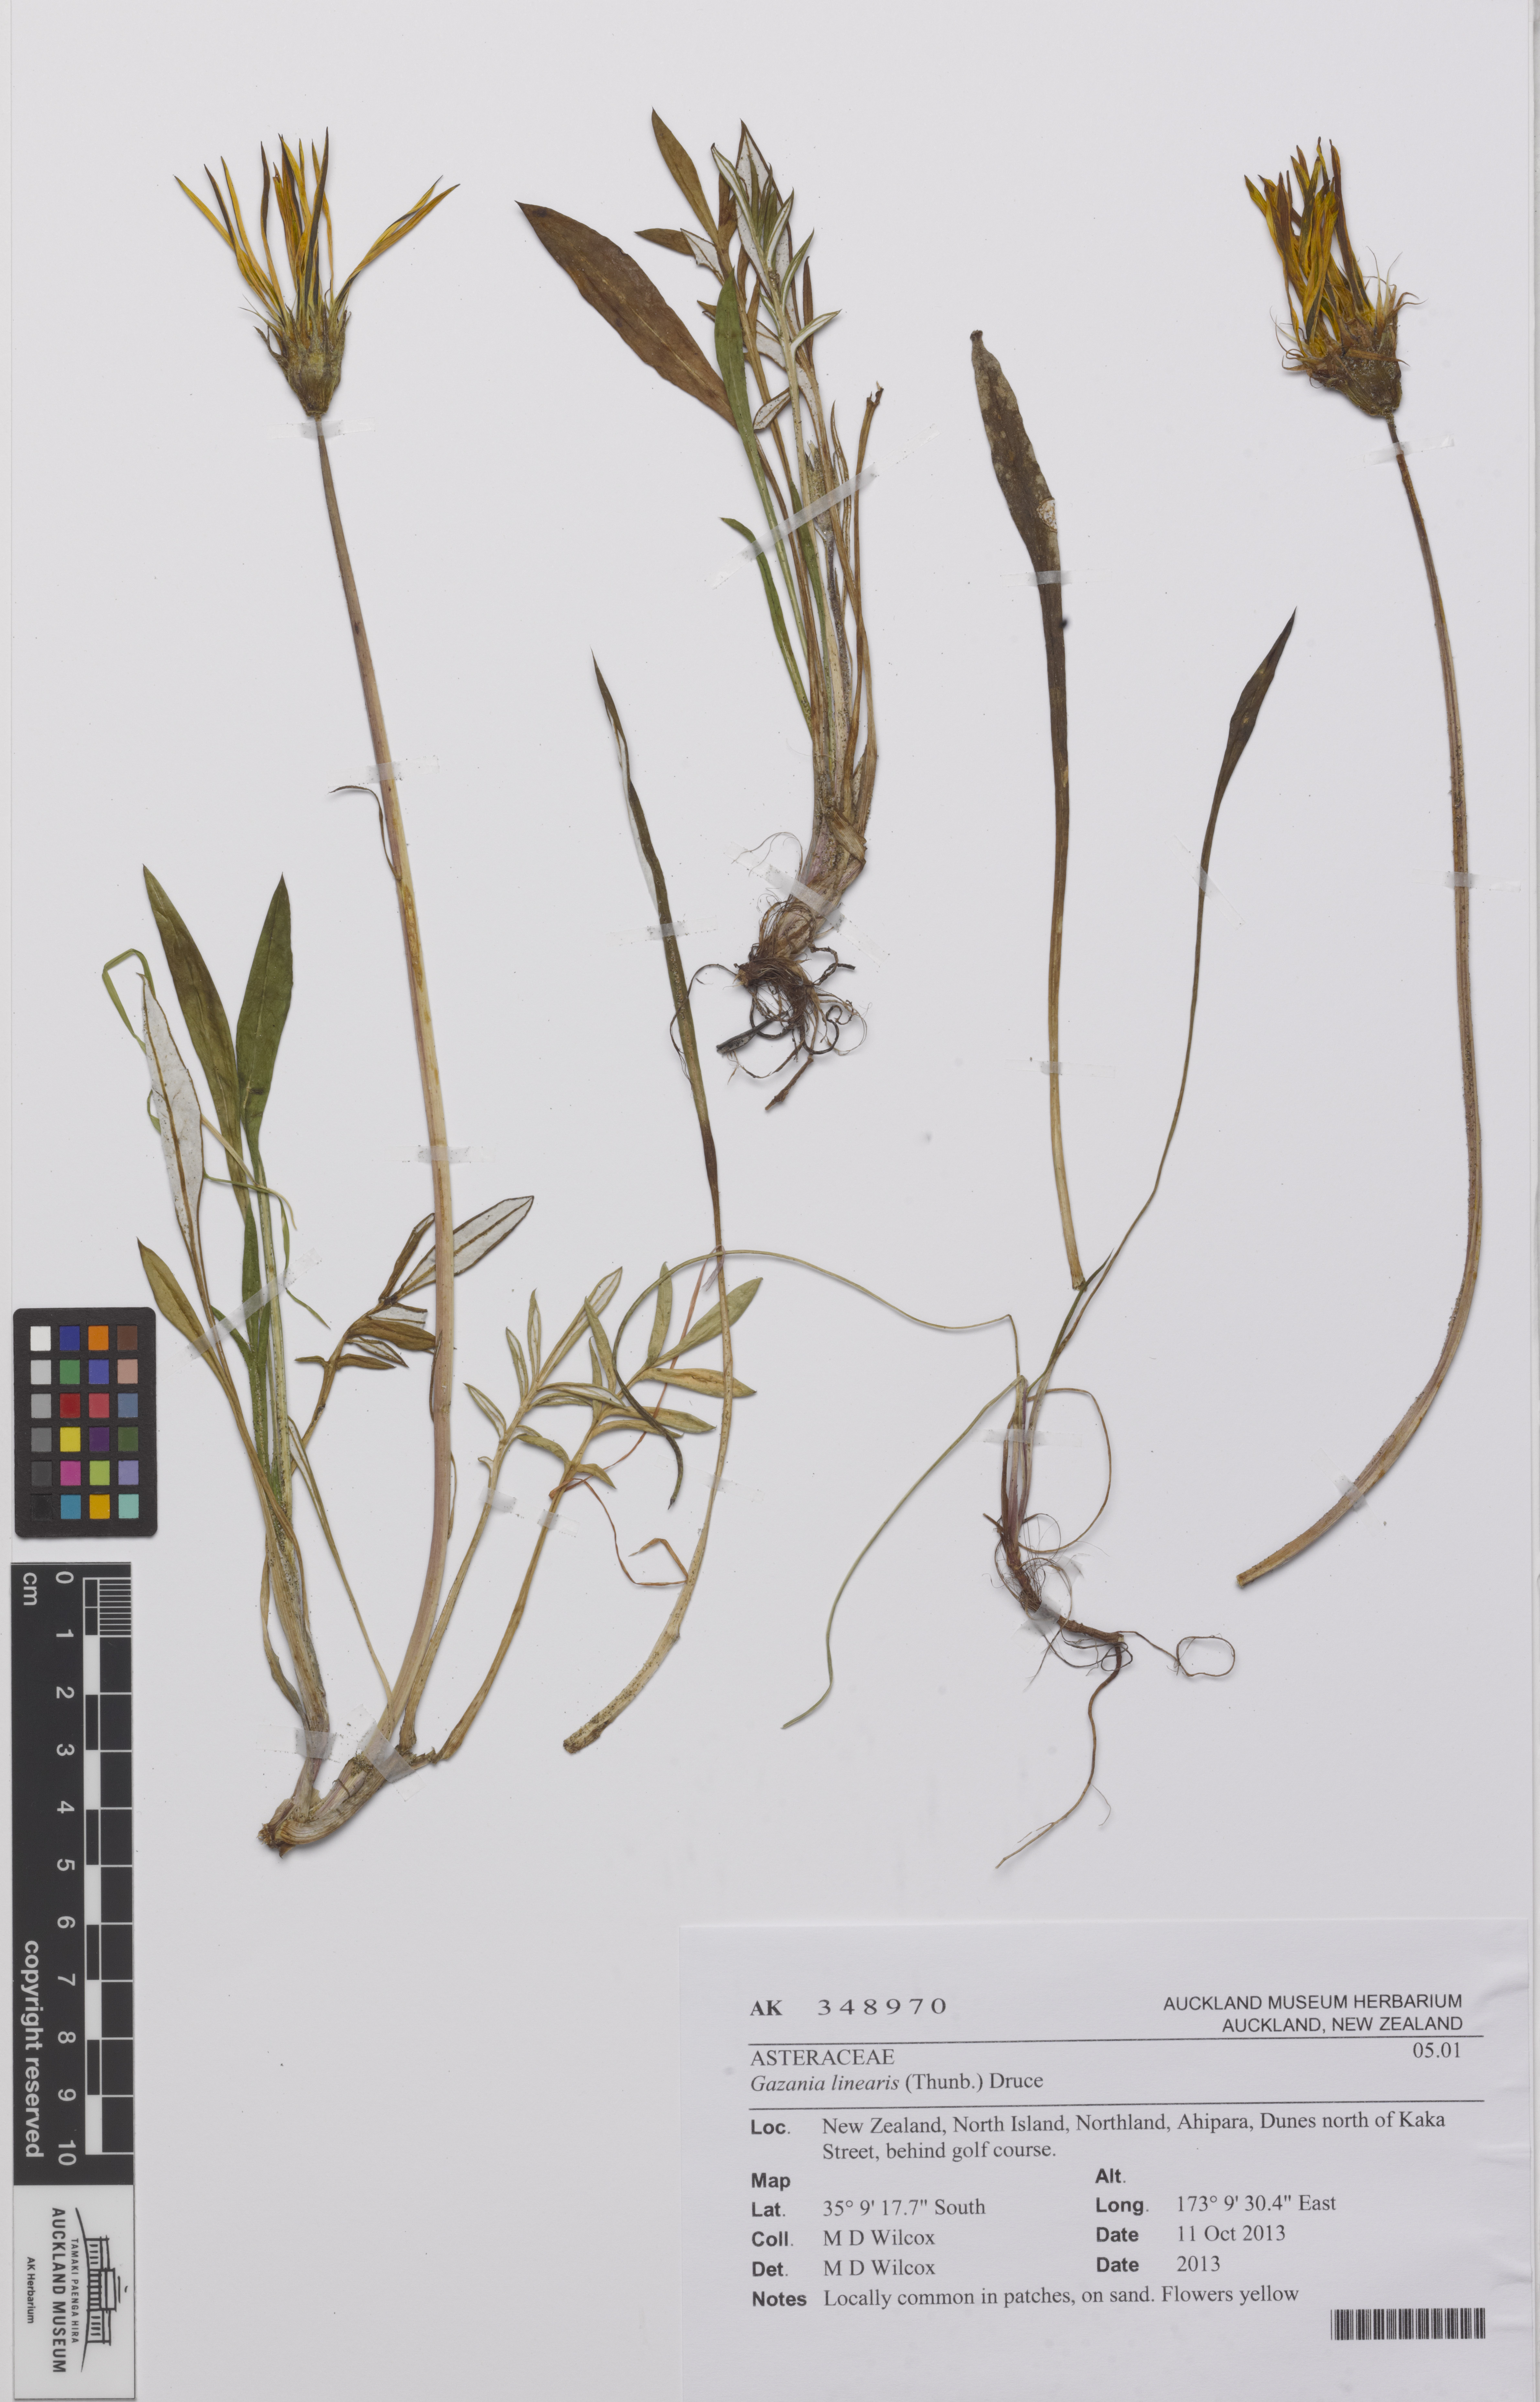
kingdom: Plantae
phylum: Tracheophyta
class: Magnoliopsida
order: Asterales
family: Asteraceae
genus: Gazania
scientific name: Gazania linearis
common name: Treasureflower
